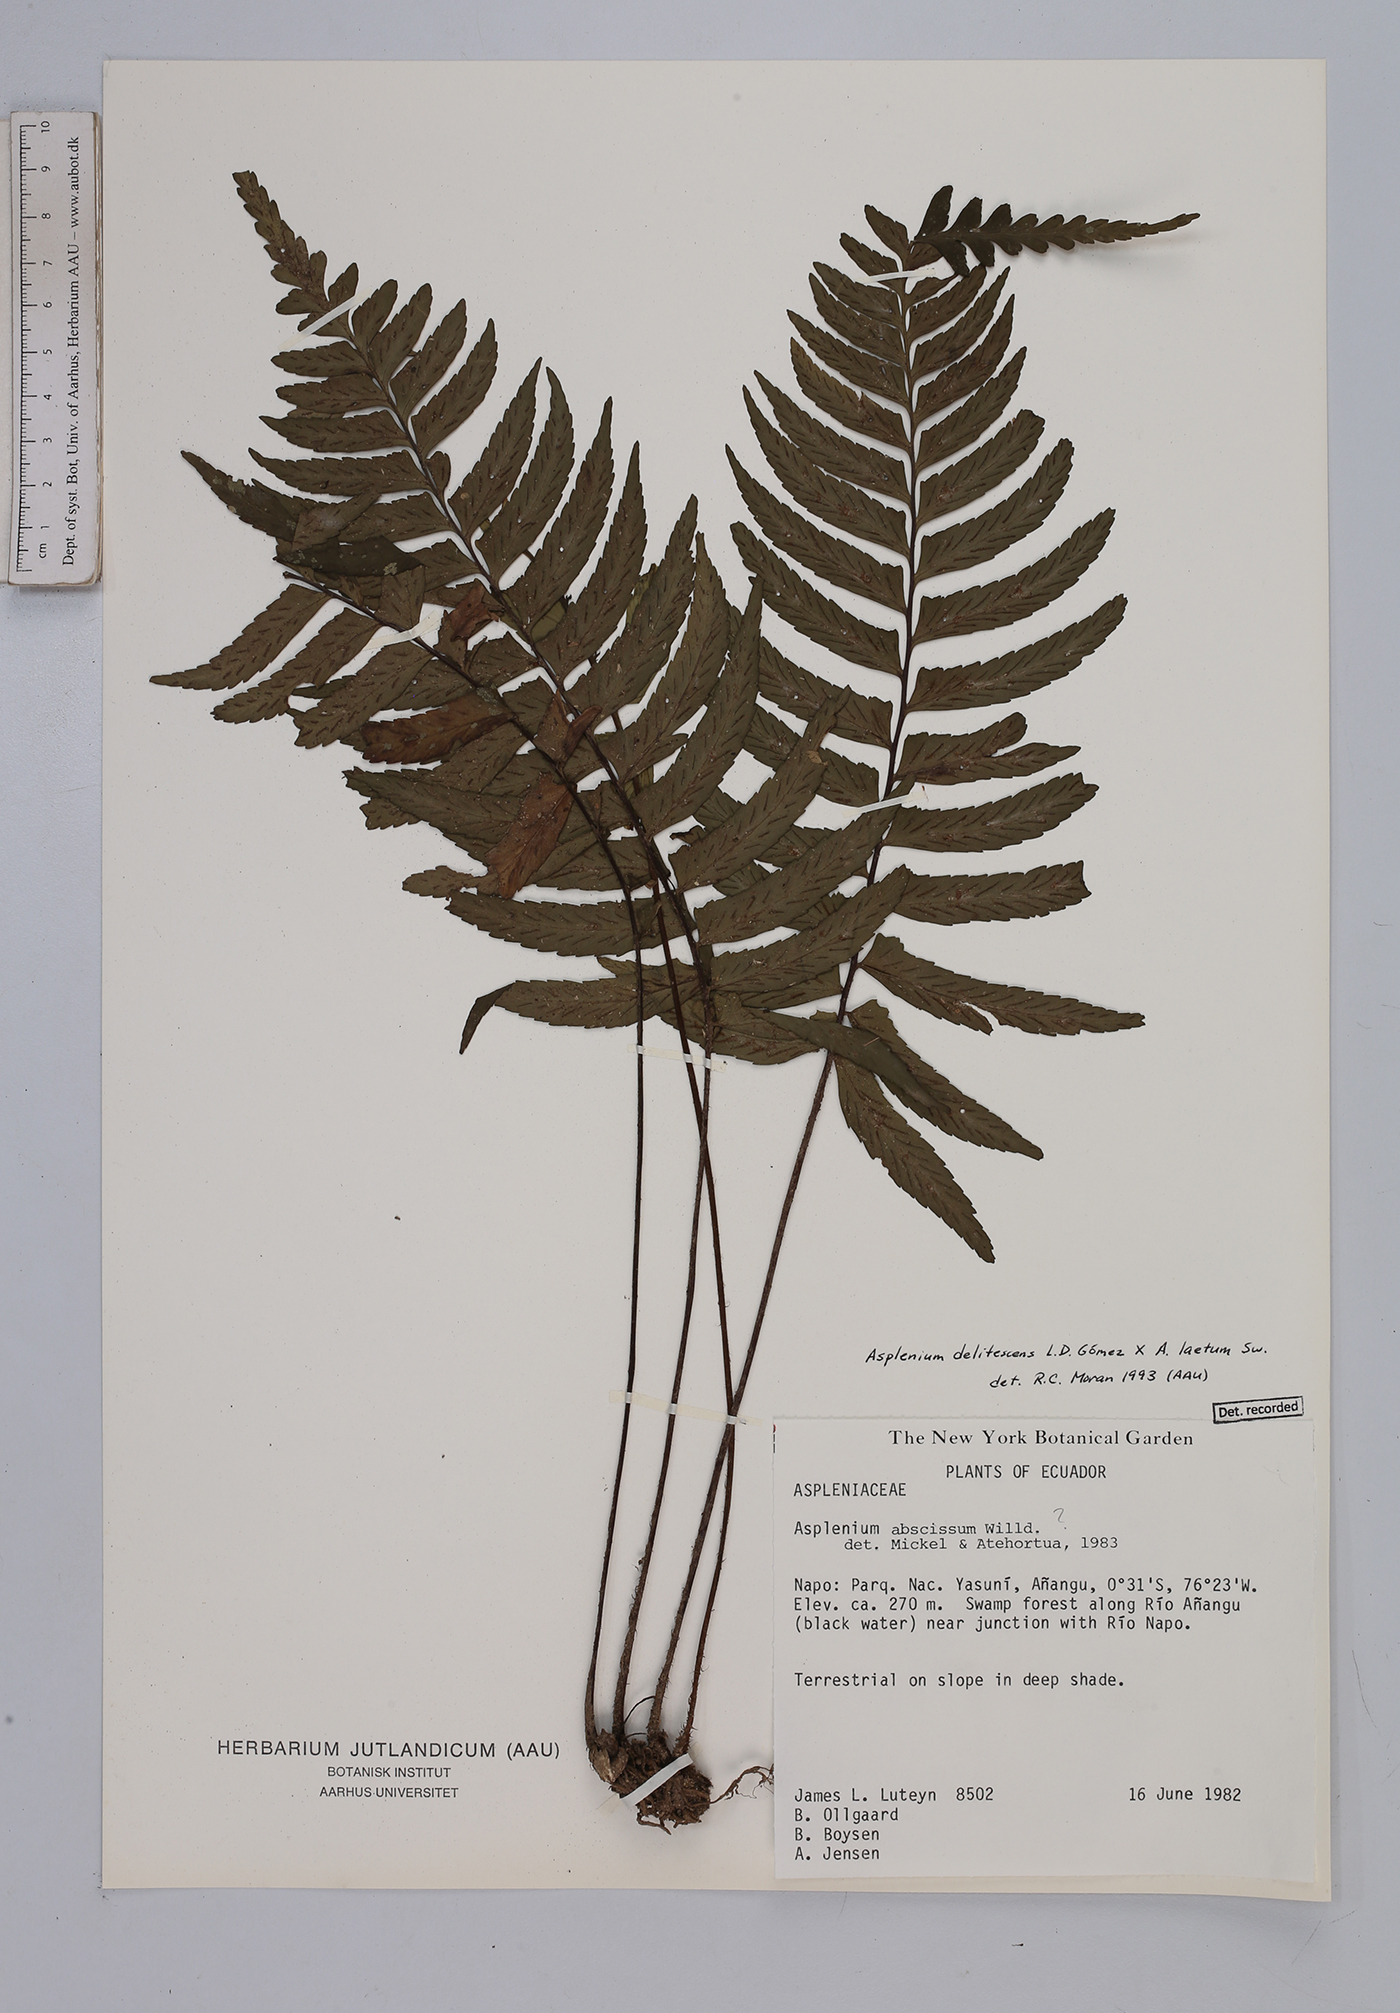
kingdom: Plantae
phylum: Tracheophyta
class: Polypodiopsida
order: Polypodiales
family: Aspleniaceae
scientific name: Aspleniaceae
